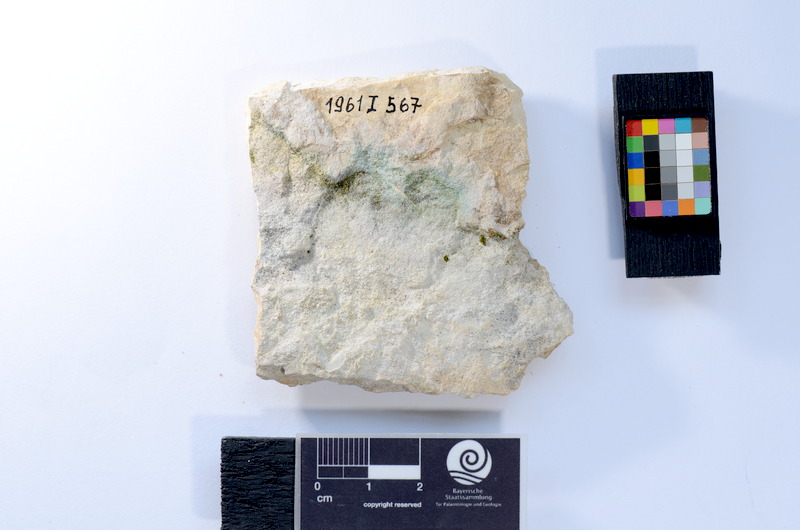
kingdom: Animalia
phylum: Chordata
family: Ascalaboidae
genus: Tharsis
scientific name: Tharsis dubius
